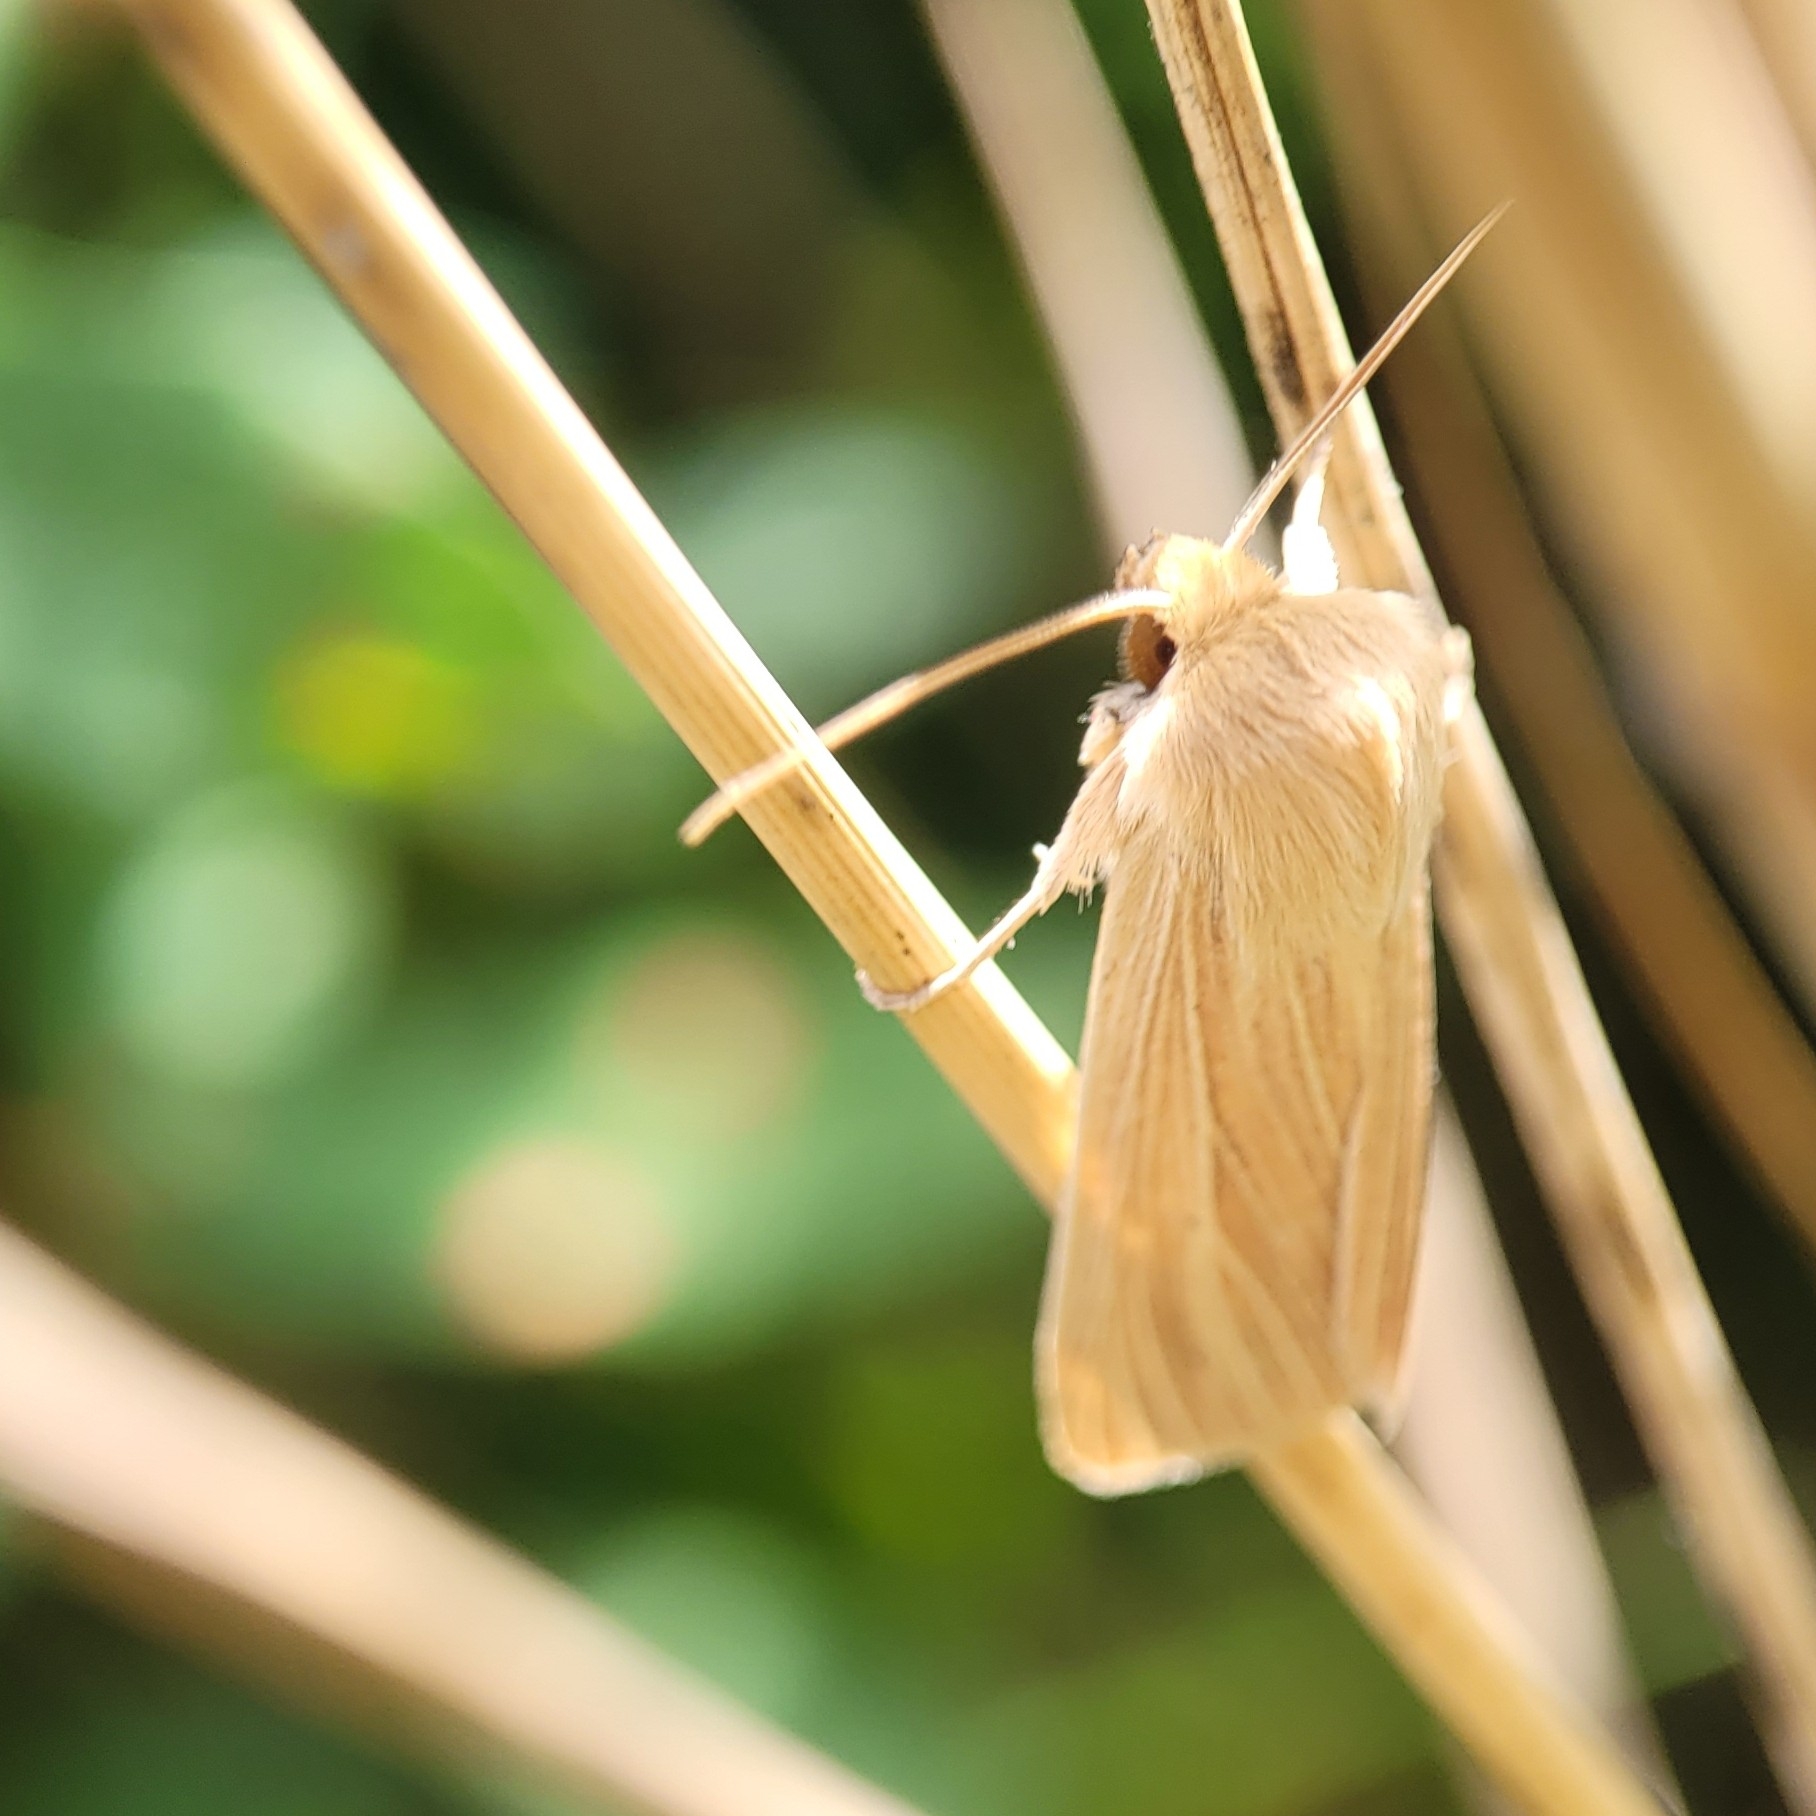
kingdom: Animalia
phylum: Arthropoda
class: Insecta
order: Lepidoptera
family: Noctuidae
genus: Mythimna
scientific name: Mythimna pallens
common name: Halmugle
